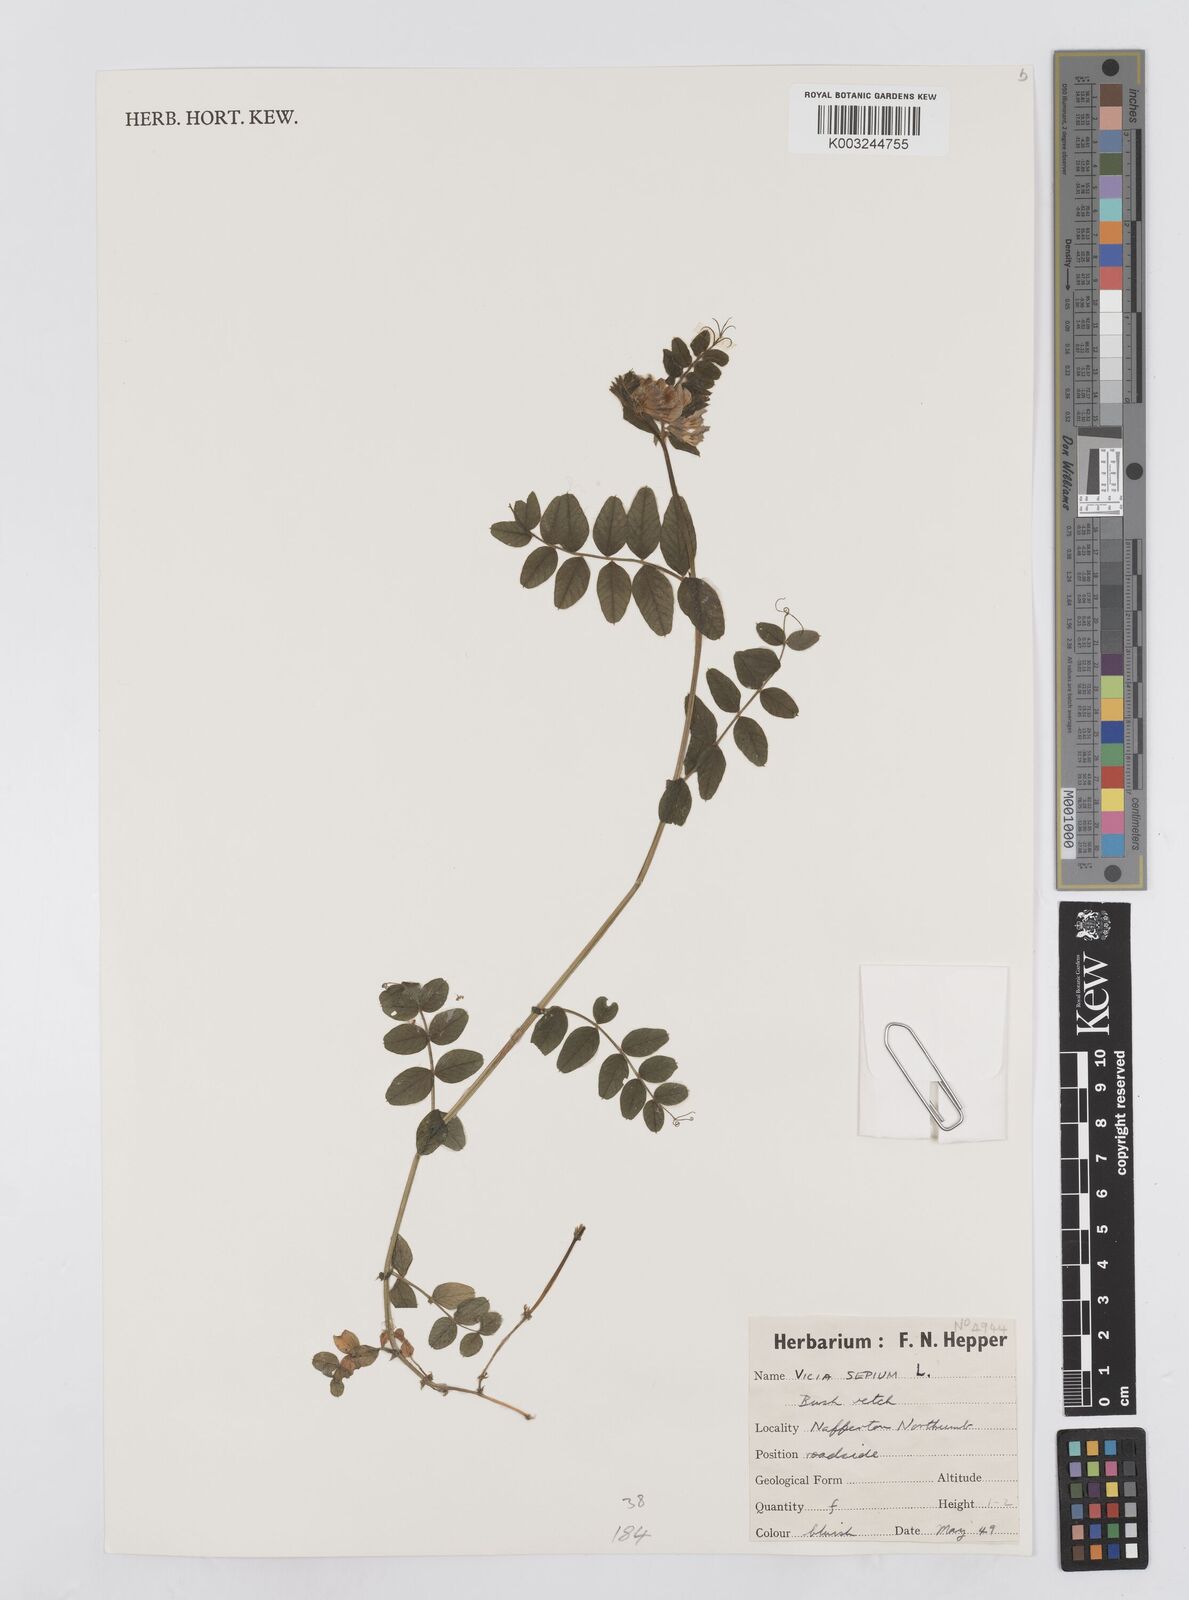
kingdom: Plantae
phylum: Tracheophyta
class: Magnoliopsida
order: Fabales
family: Fabaceae
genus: Vicia
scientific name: Vicia
